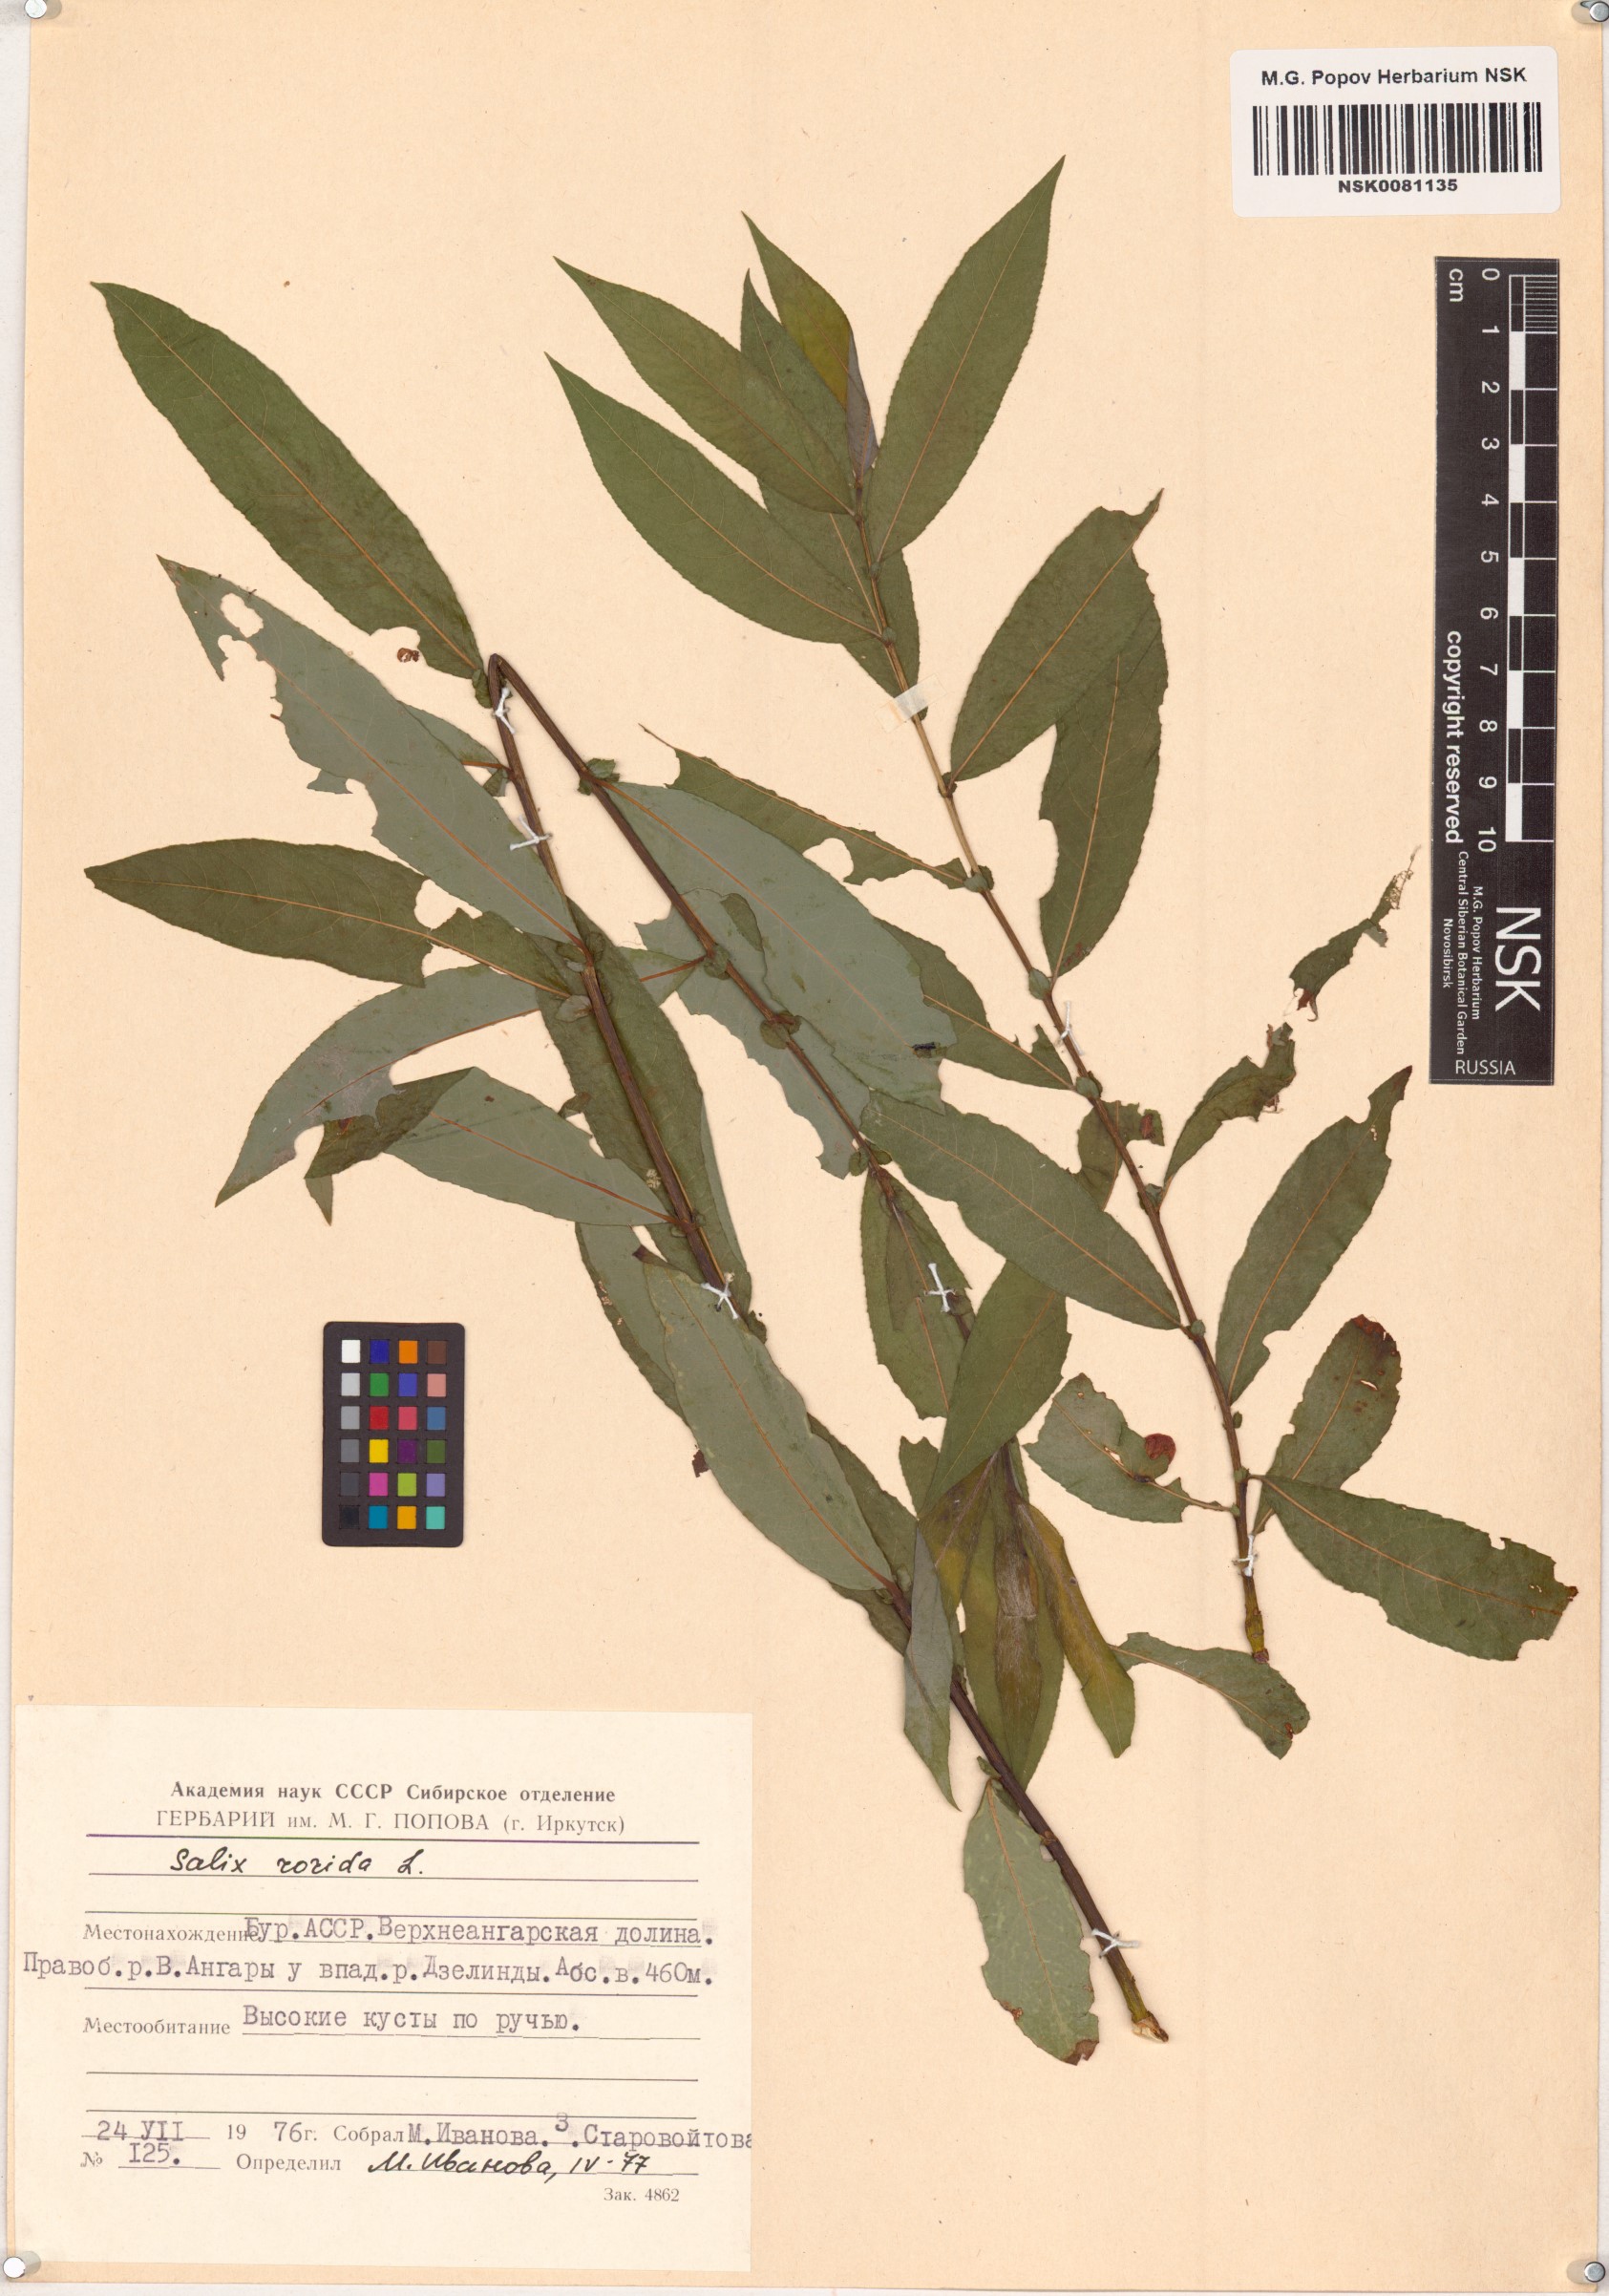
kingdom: Plantae
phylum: Tracheophyta
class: Magnoliopsida
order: Malpighiales
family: Salicaceae
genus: Salix
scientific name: Salix rorida
